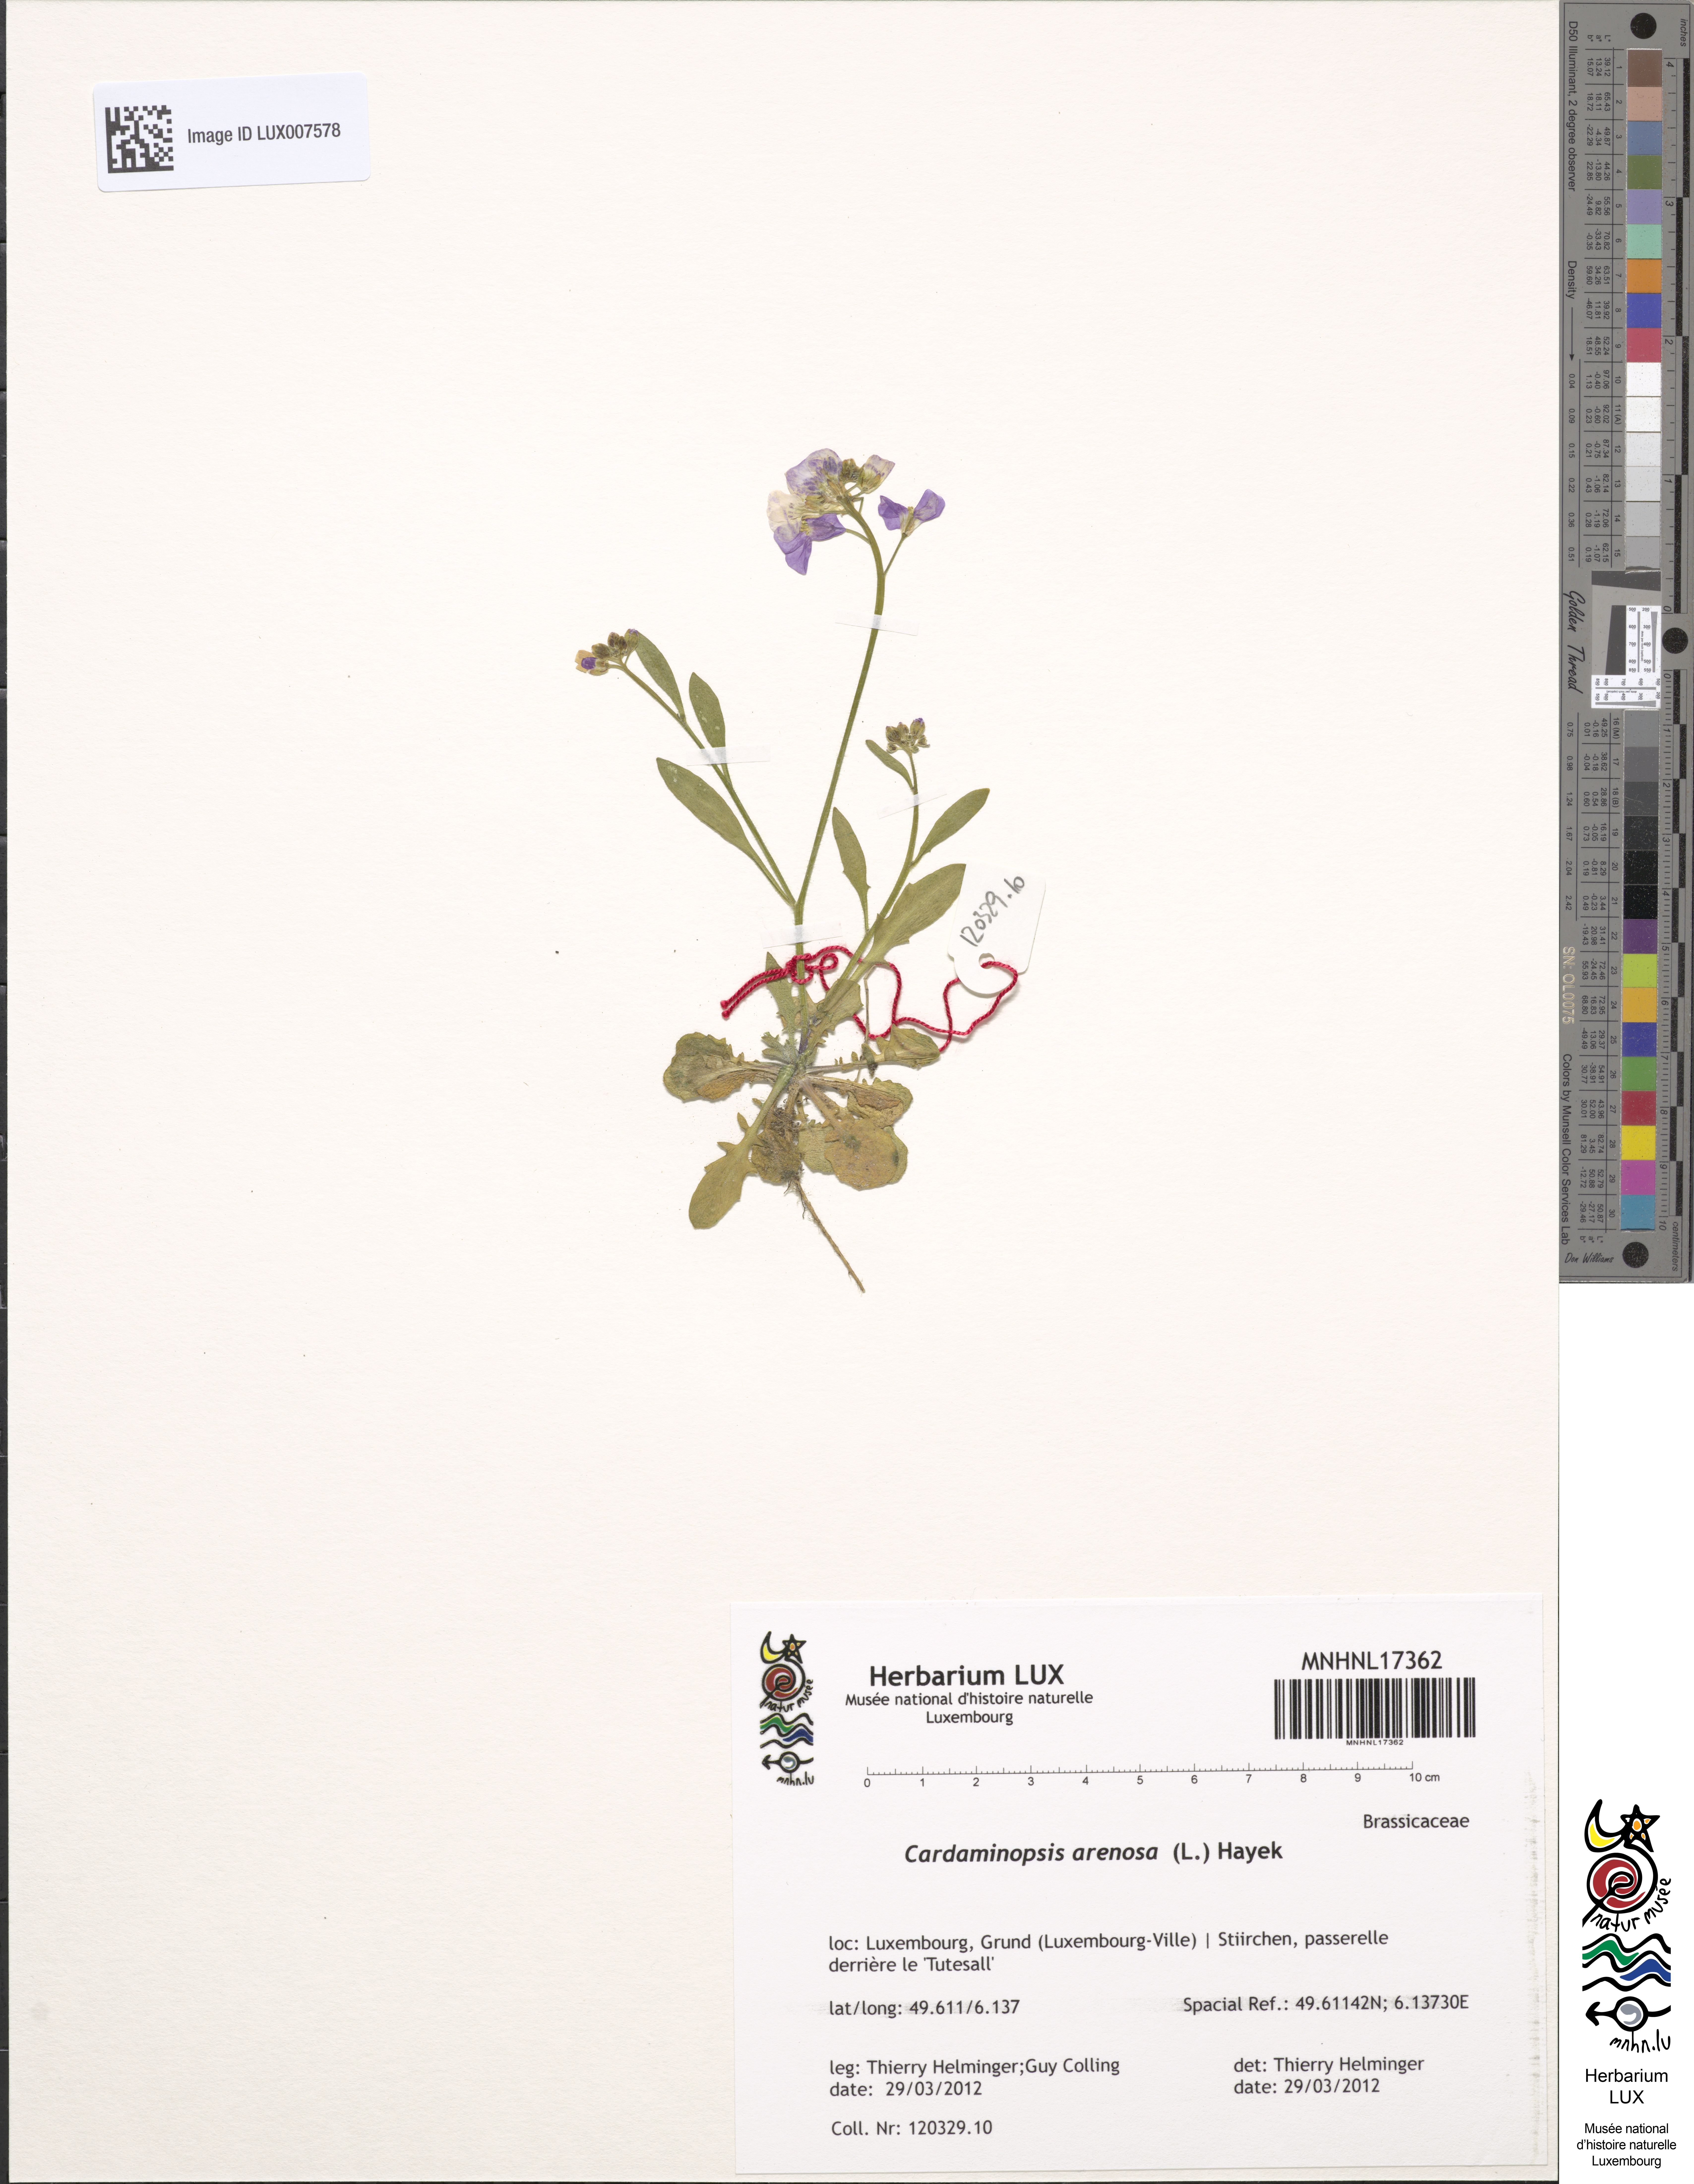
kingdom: Plantae
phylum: Tracheophyta
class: Magnoliopsida
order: Brassicales
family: Brassicaceae
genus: Arabidopsis
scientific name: Arabidopsis arenosa
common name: Sand rock-cress
